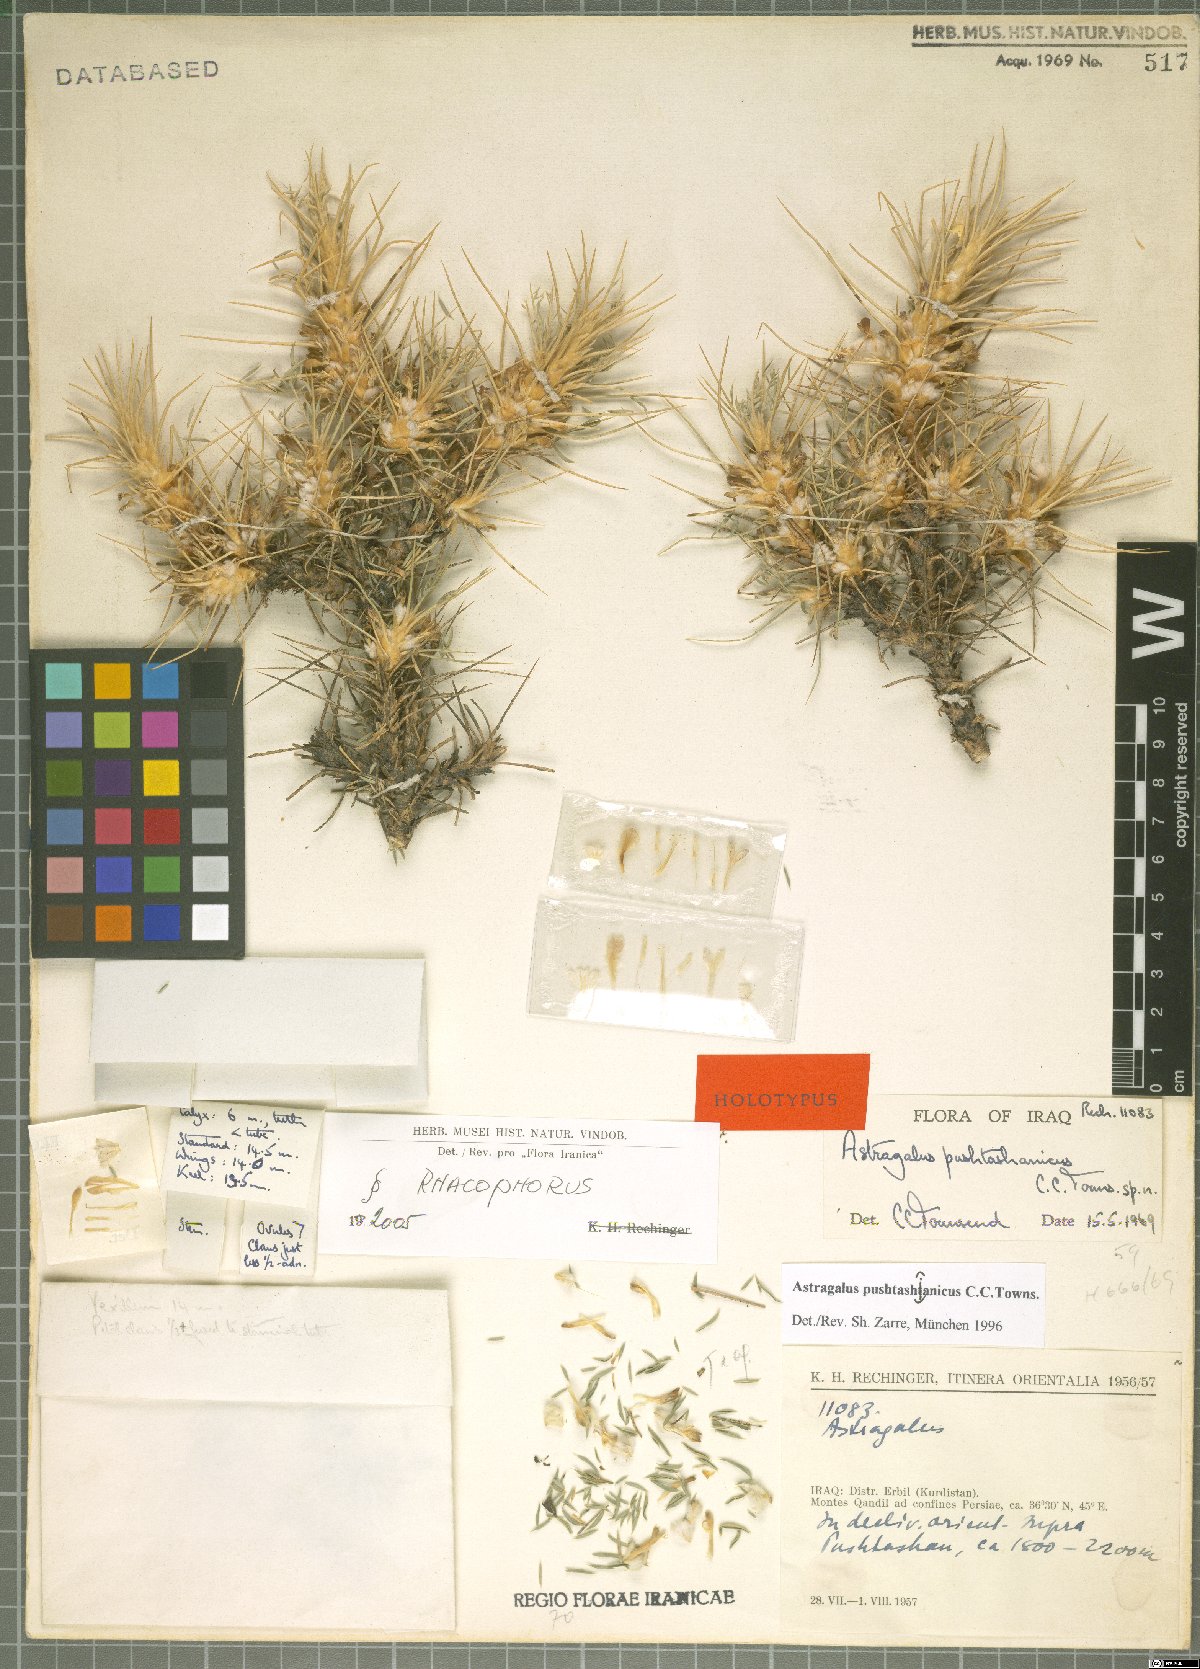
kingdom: Plantae
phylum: Tracheophyta
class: Magnoliopsida
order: Fabales
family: Fabaceae
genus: Astragalus
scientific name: Astragalus pushtashanicus
